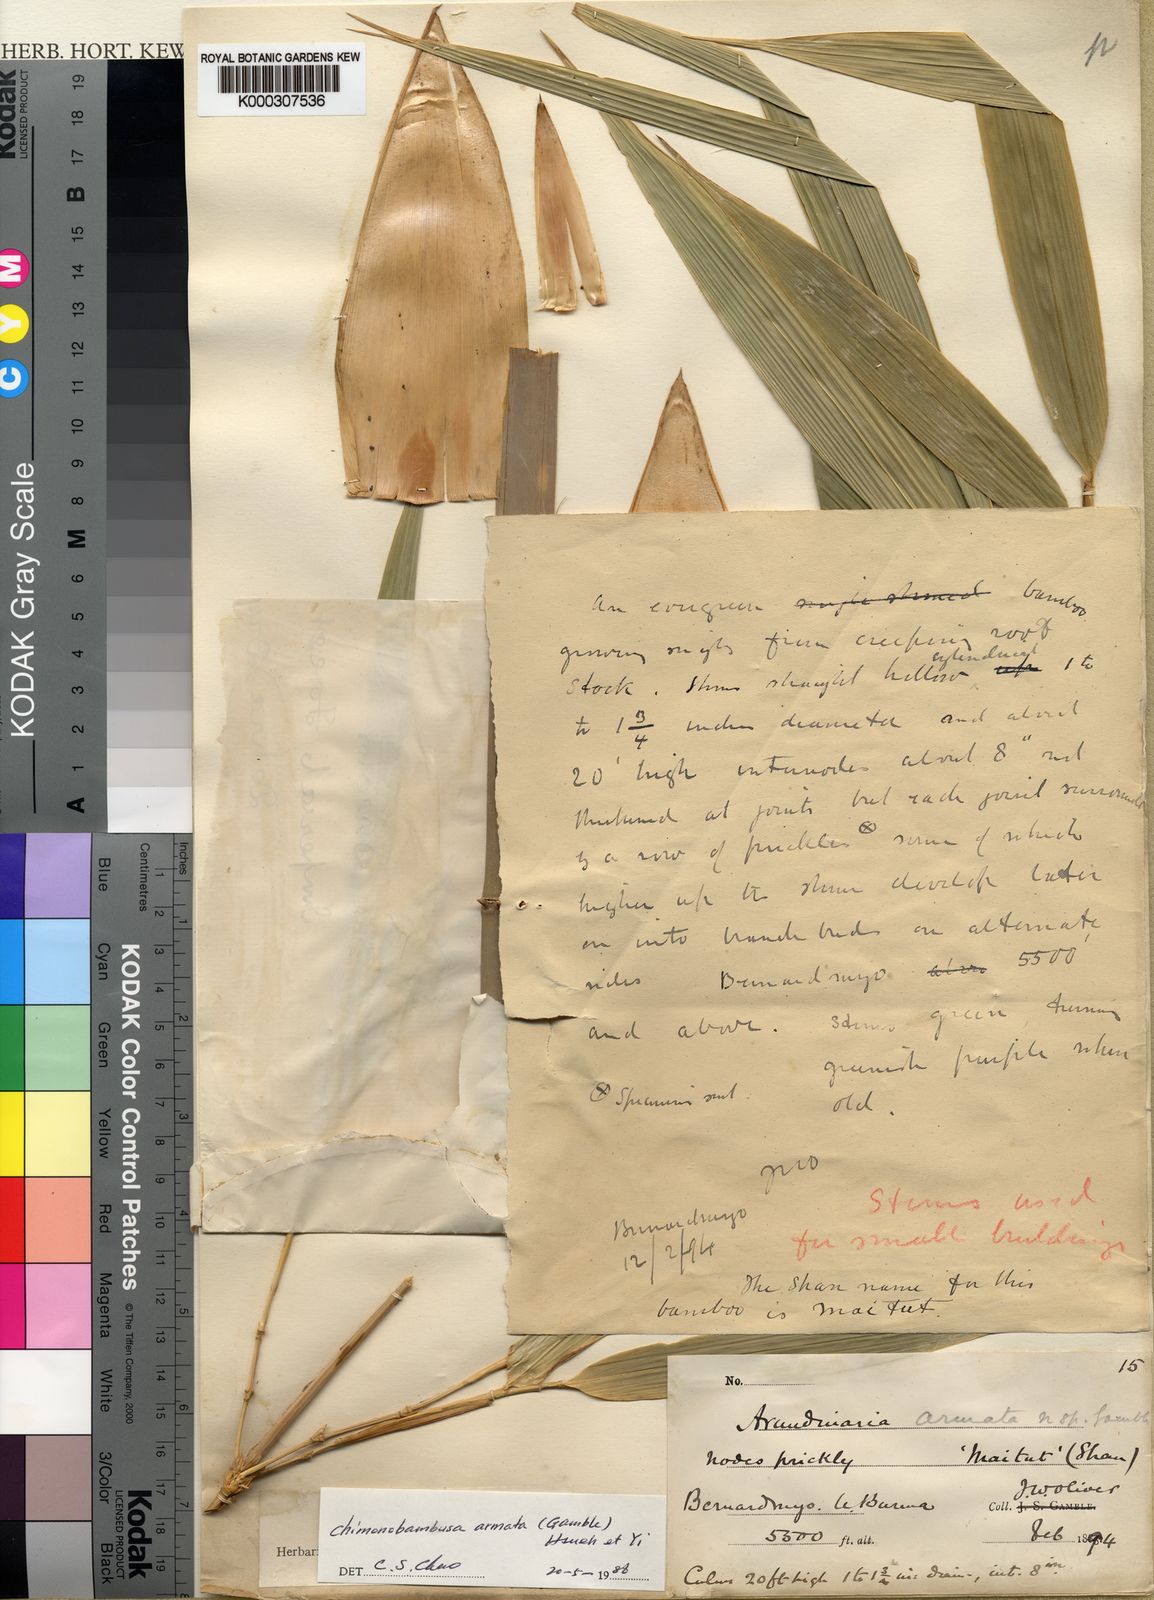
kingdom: Plantae
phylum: Tracheophyta
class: Liliopsida
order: Poales
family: Poaceae
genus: Chimonobambusa
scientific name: Chimonobambusa armata
